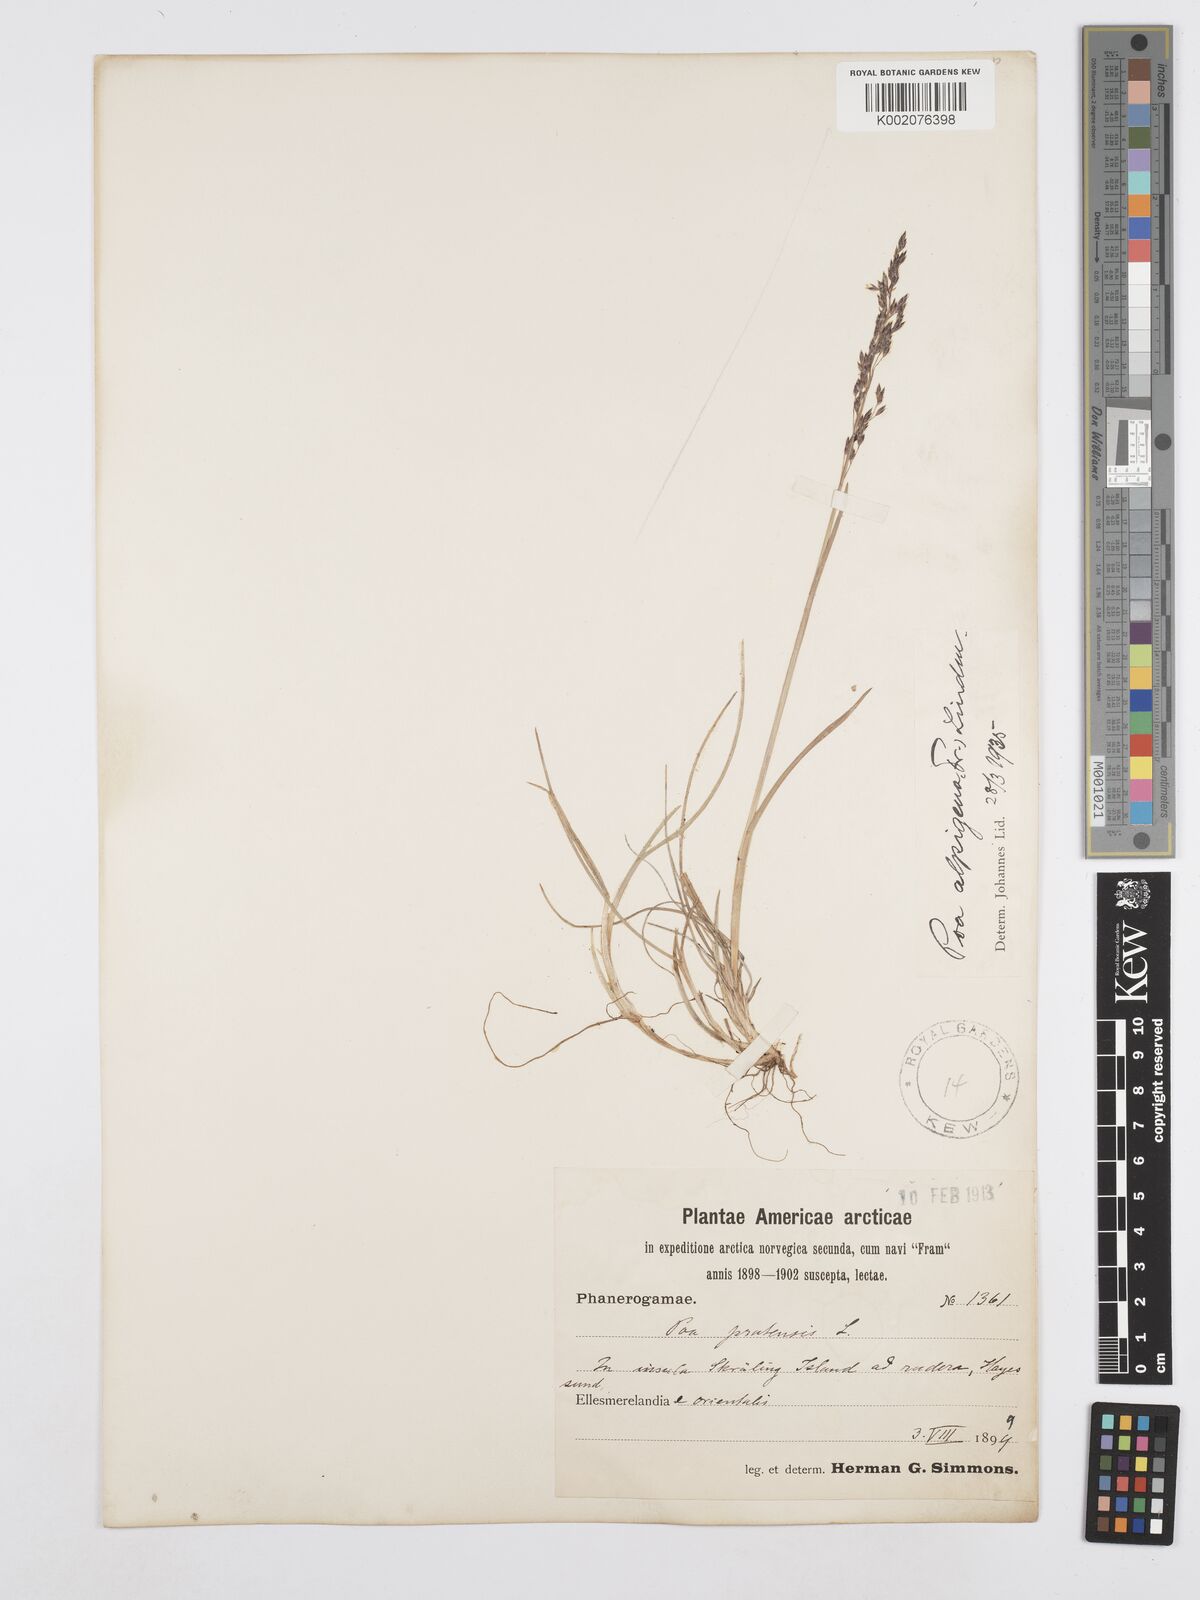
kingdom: Plantae
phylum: Tracheophyta
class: Liliopsida
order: Poales
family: Poaceae
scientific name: Poaceae
